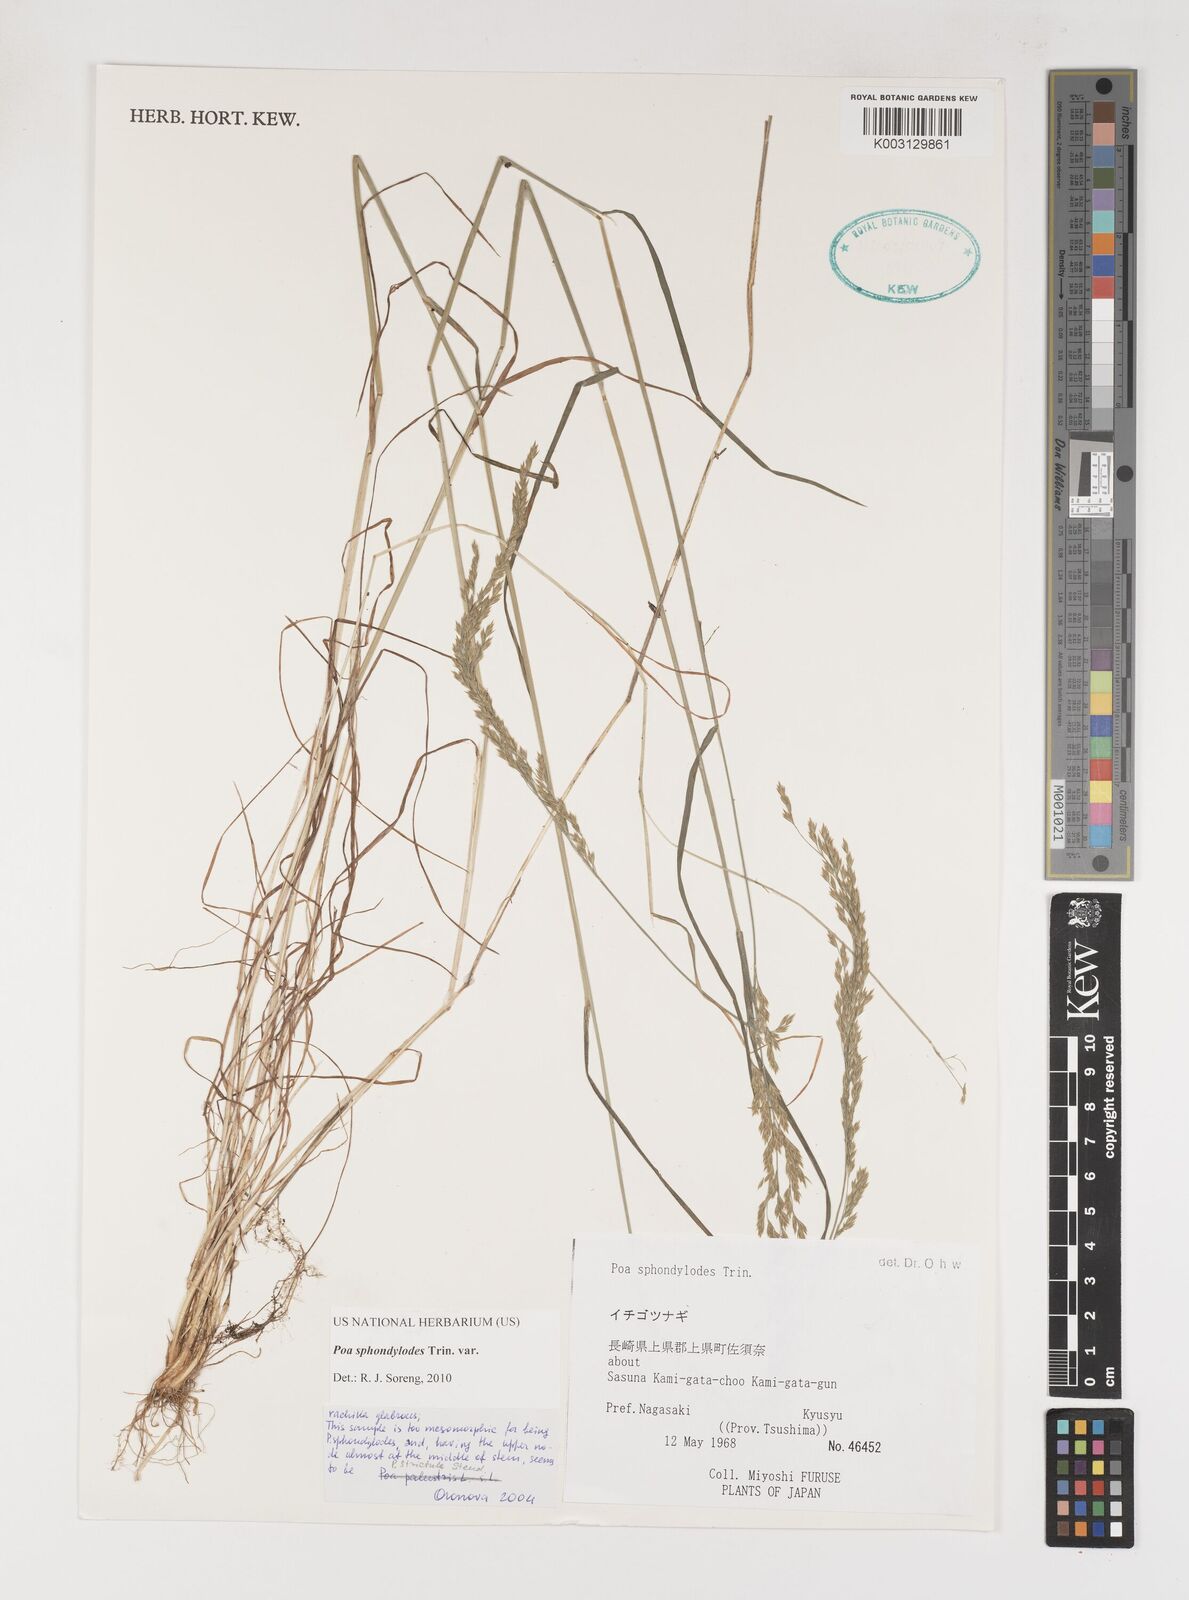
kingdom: Plantae
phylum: Tracheophyta
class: Liliopsida
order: Poales
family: Poaceae
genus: Poa
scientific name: Poa sphondylodes
